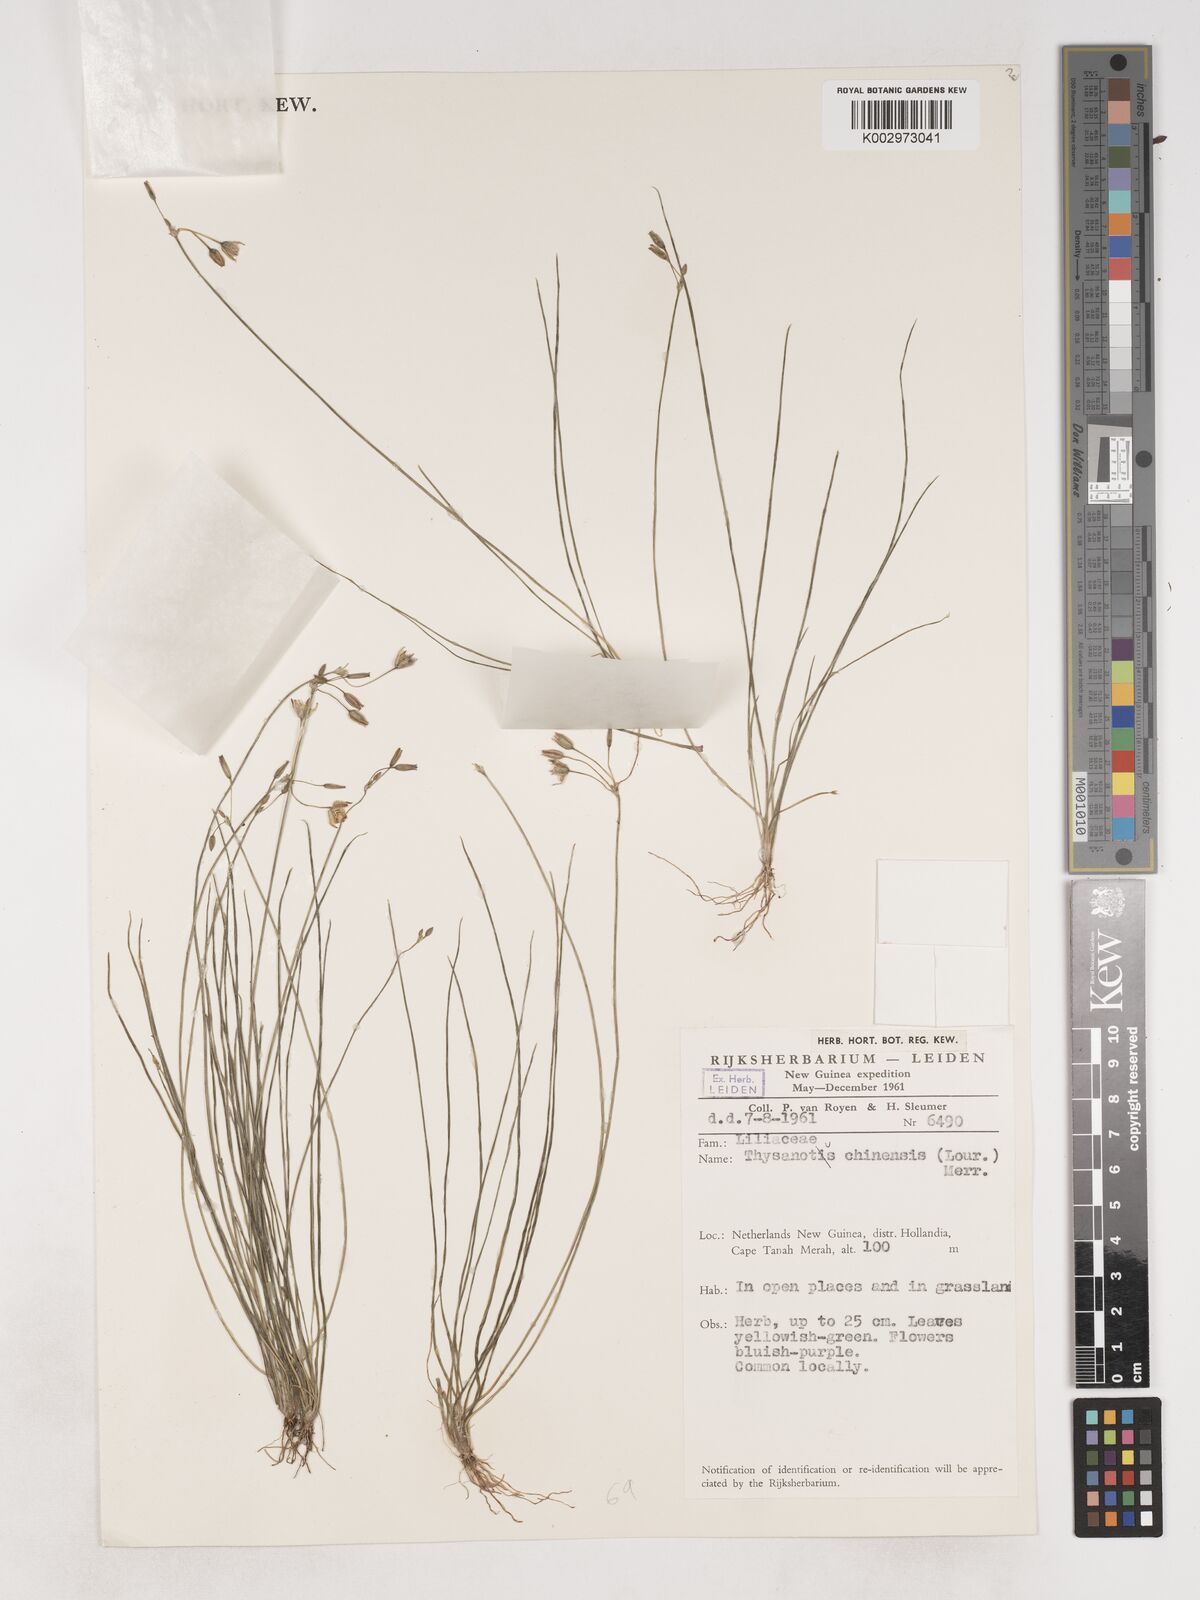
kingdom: Plantae
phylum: Tracheophyta
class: Liliopsida
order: Asparagales
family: Asparagaceae
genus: Thysanotus
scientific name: Thysanotus chinensis
